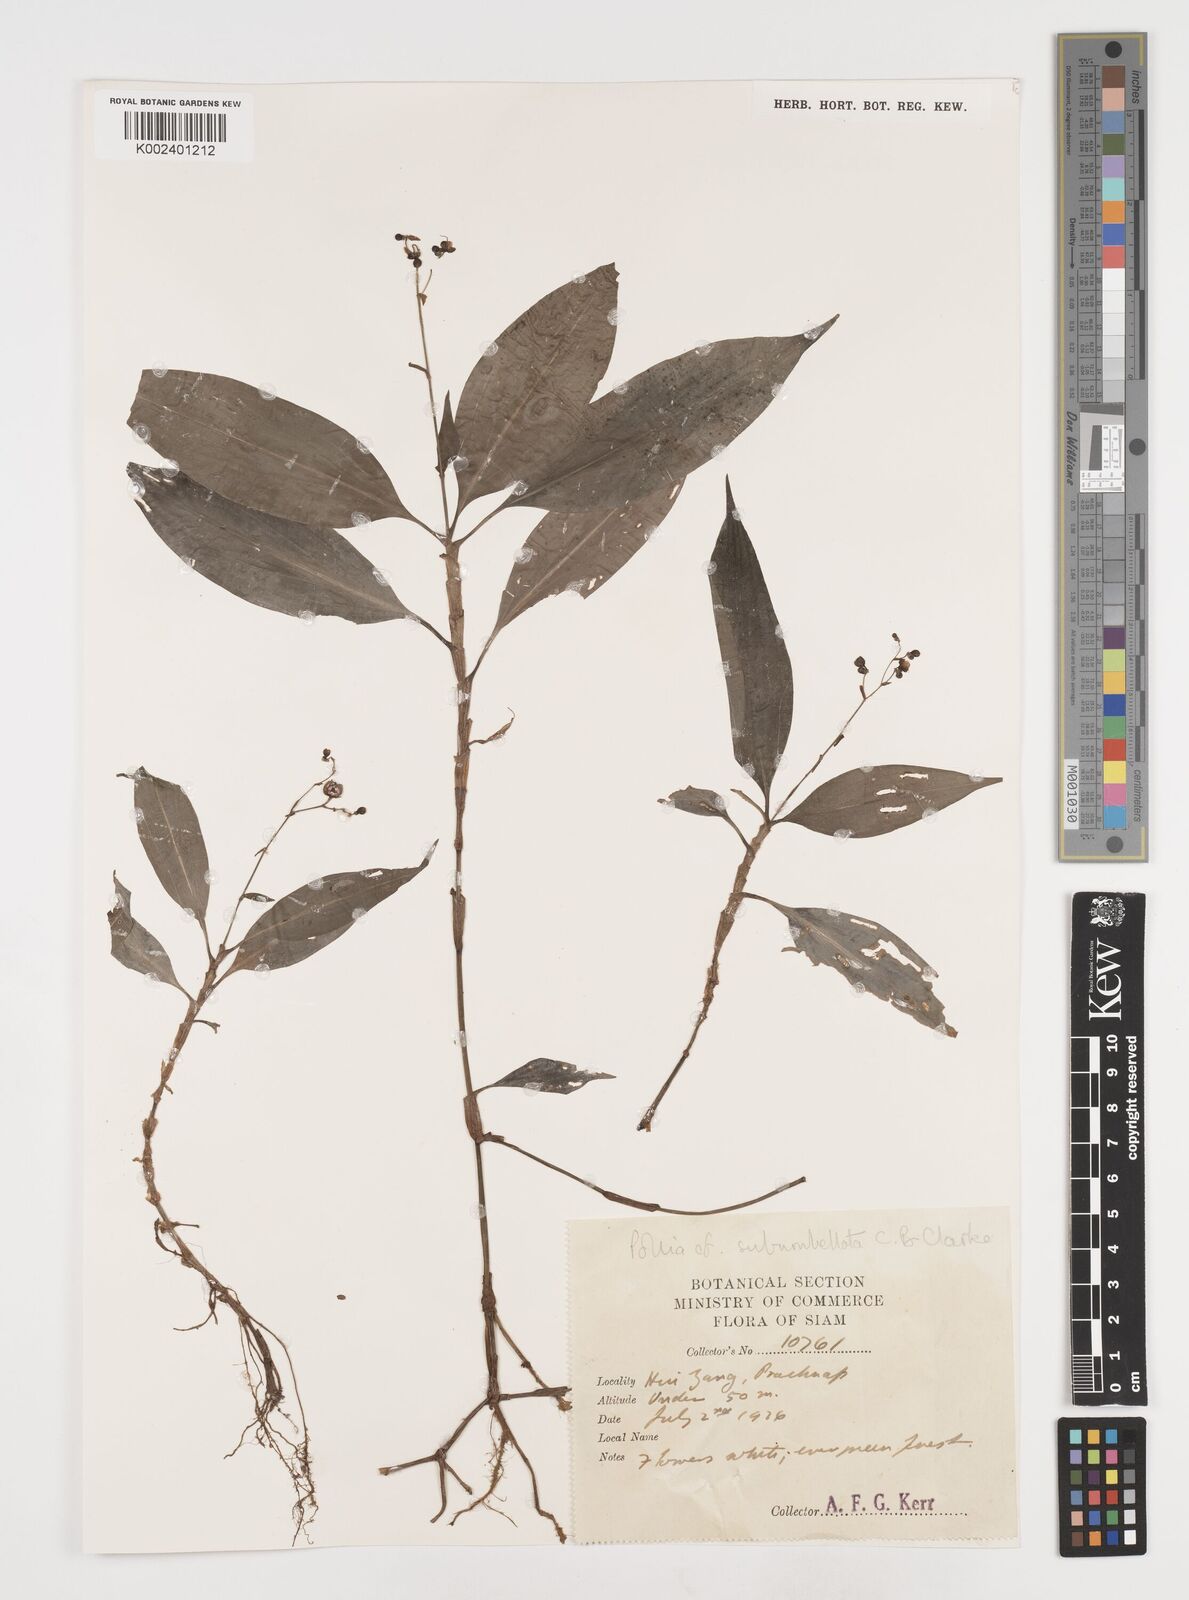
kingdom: Plantae
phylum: Tracheophyta
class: Liliopsida
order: Commelinales
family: Commelinaceae
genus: Pollia
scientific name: Pollia secundiflora
